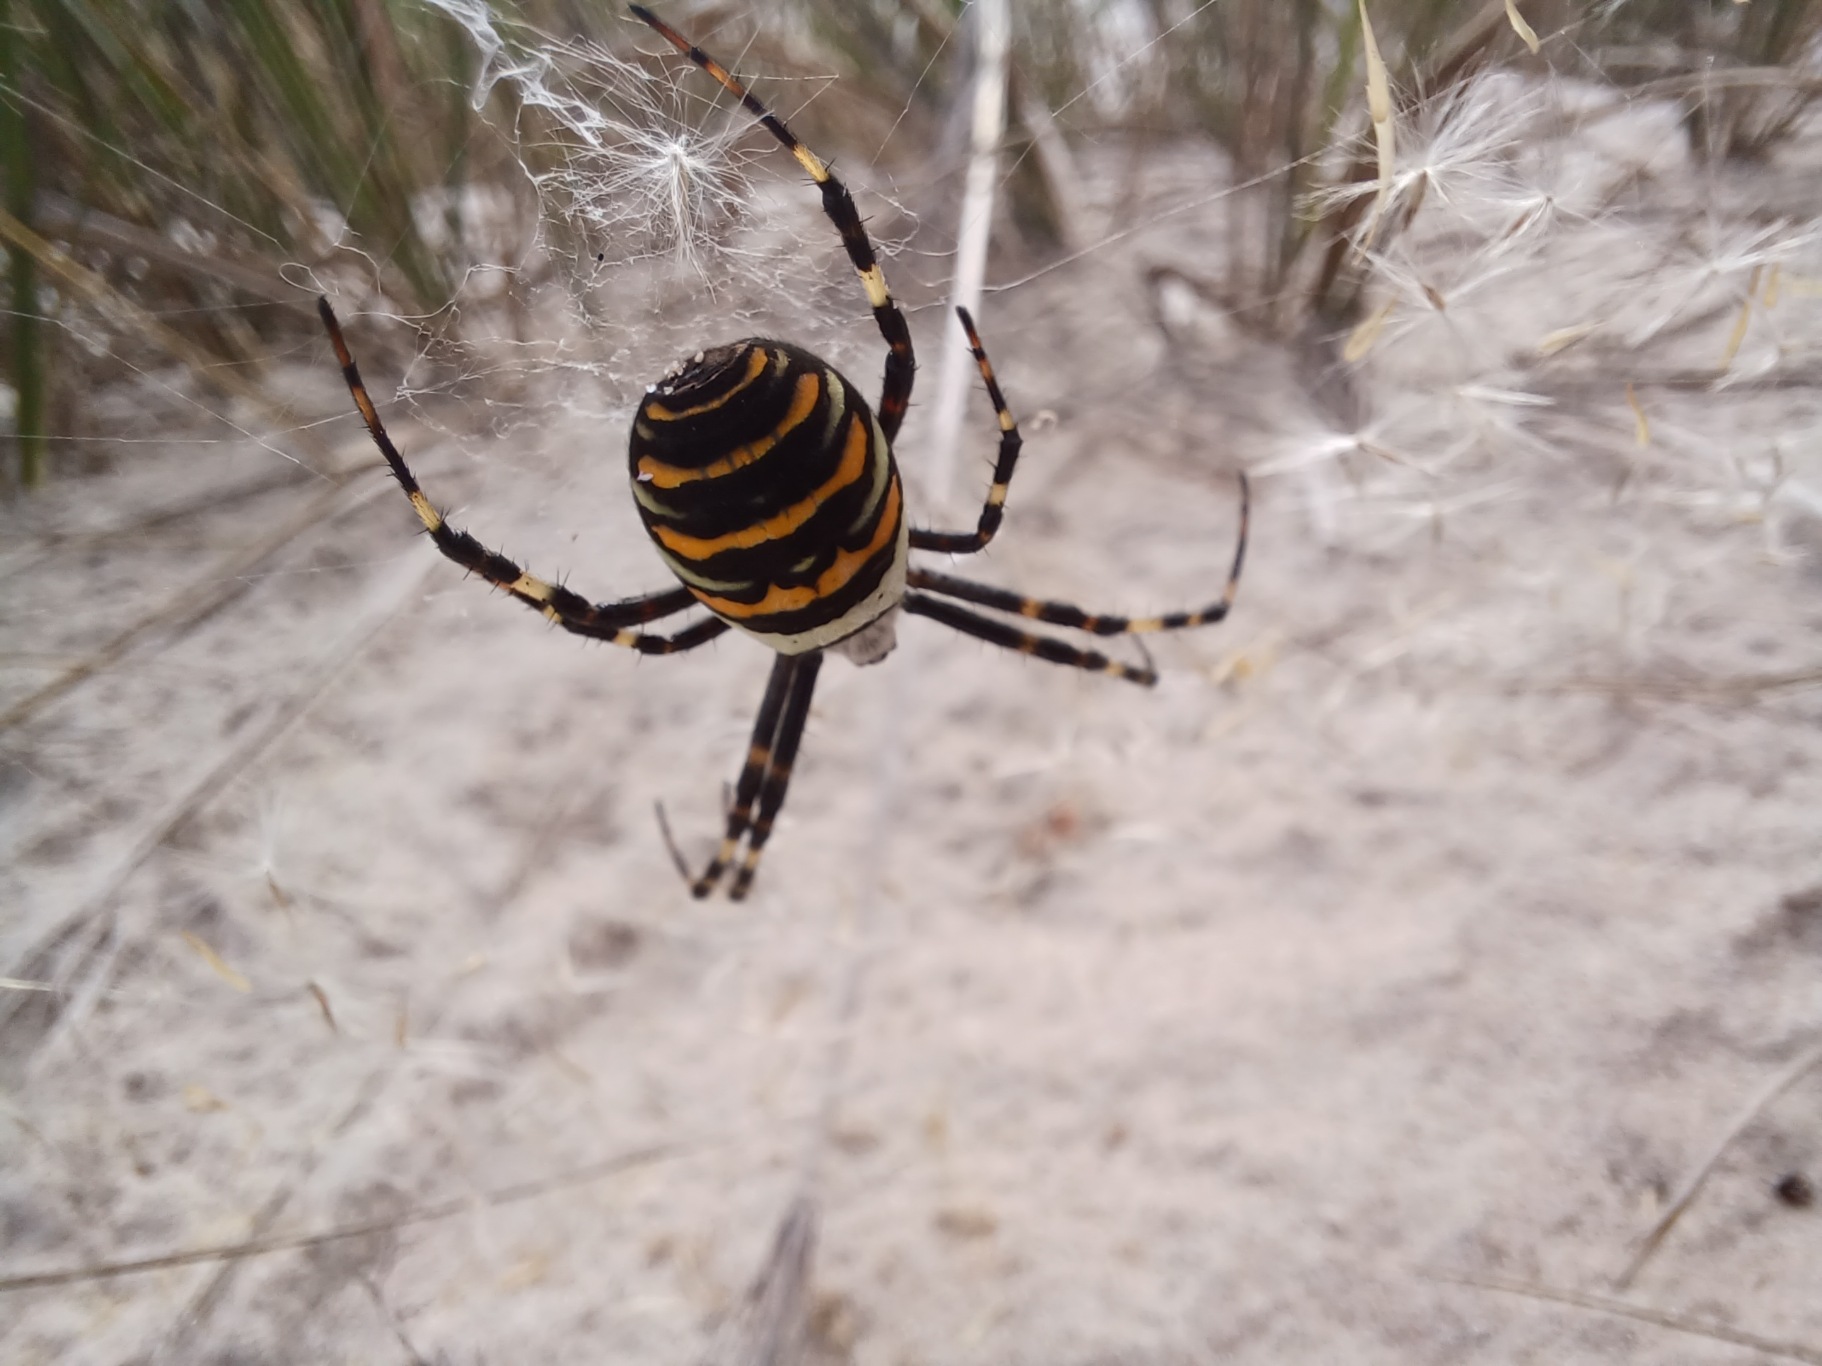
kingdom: Animalia
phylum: Arthropoda
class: Arachnida
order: Araneae
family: Araneidae
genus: Argiope
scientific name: Argiope bruennichi
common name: Hvepseedderkop
